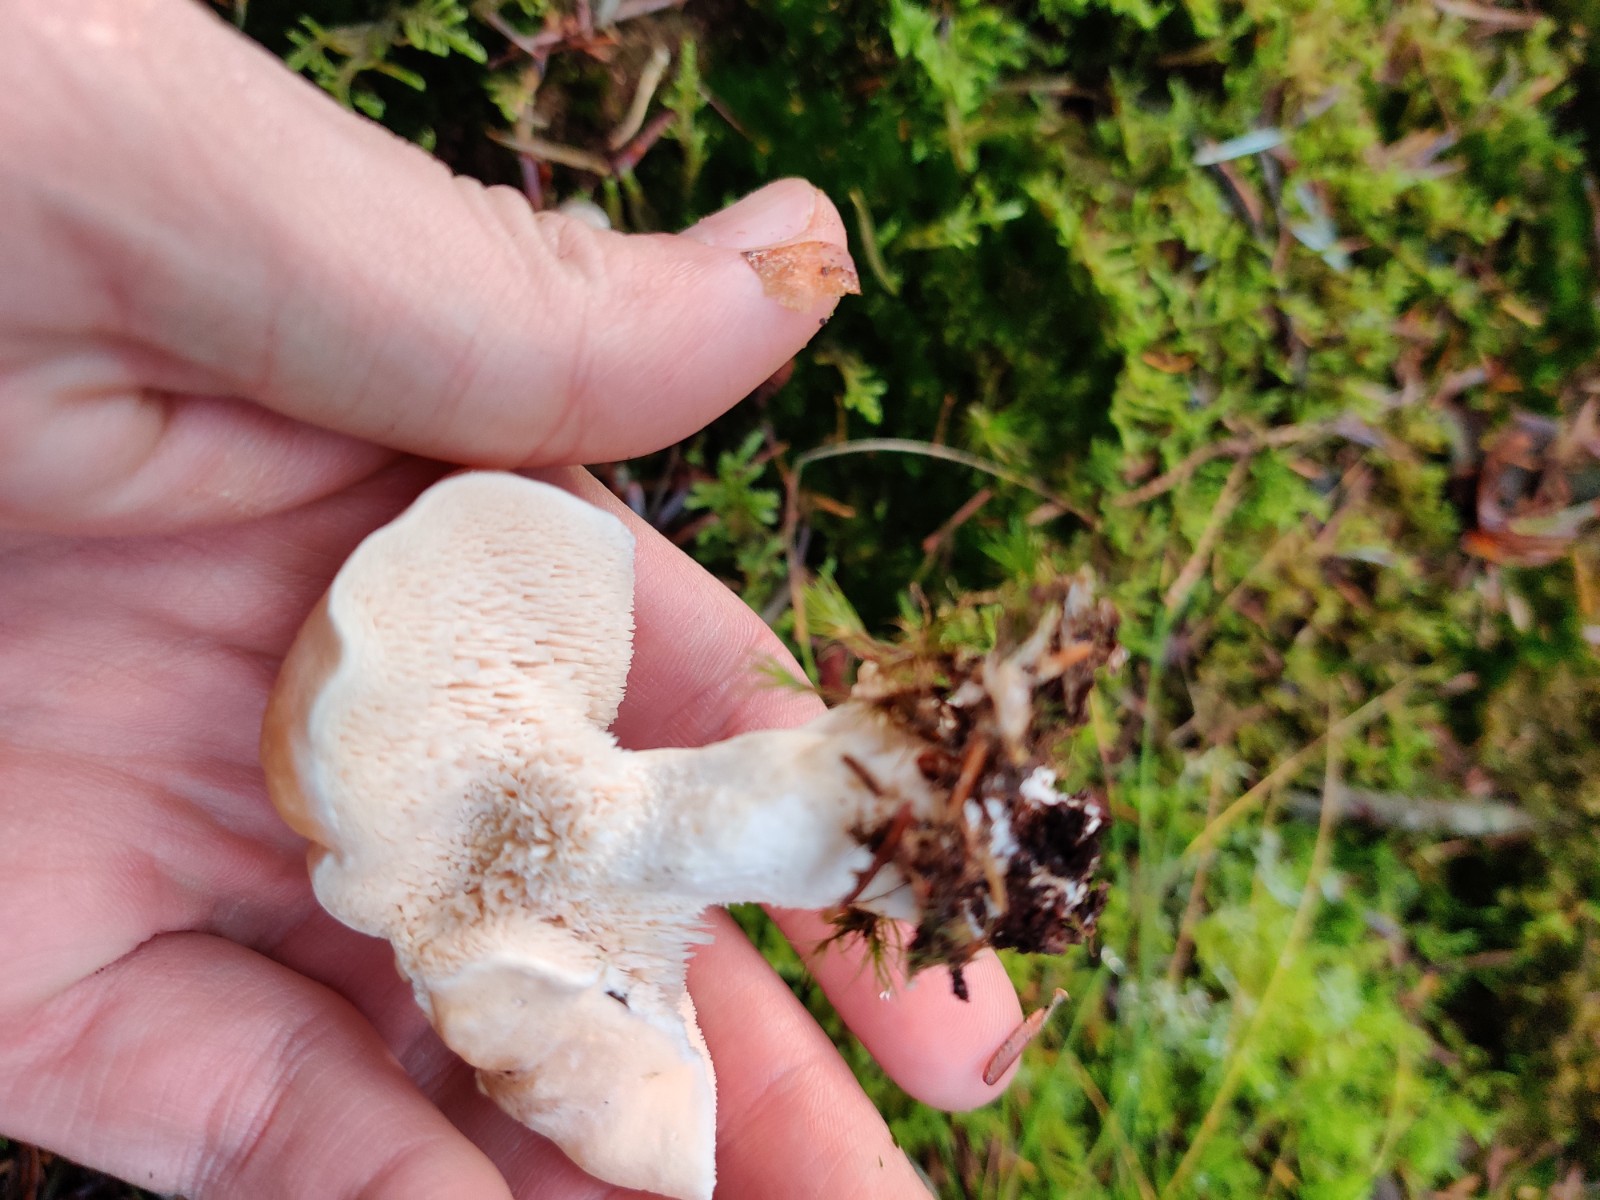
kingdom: Fungi
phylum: Basidiomycota
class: Agaricomycetes
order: Cantharellales
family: Hydnaceae
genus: Hydnum
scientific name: Hydnum repandum
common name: almindelig pigsvamp
